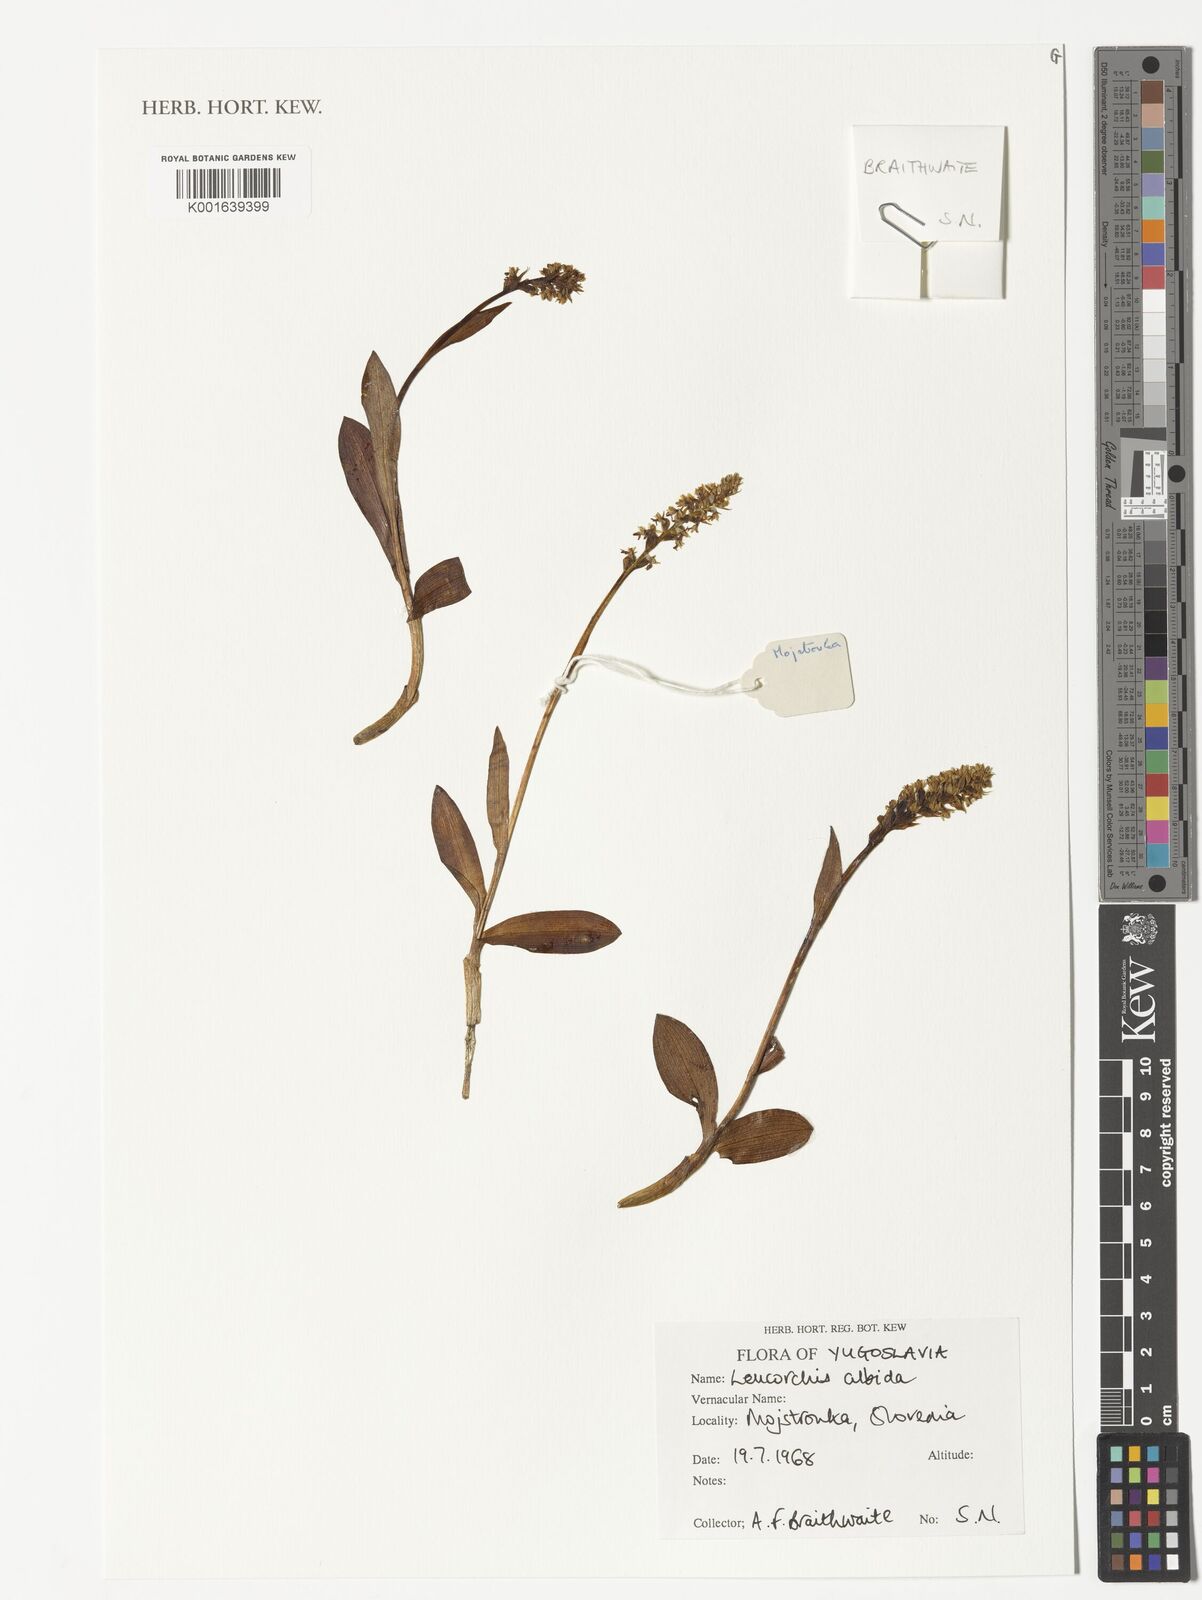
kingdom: Plantae
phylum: Tracheophyta
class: Liliopsida
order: Asparagales
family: Orchidaceae
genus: Pseudorchis
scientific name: Pseudorchis albida
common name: Small-white orchid
